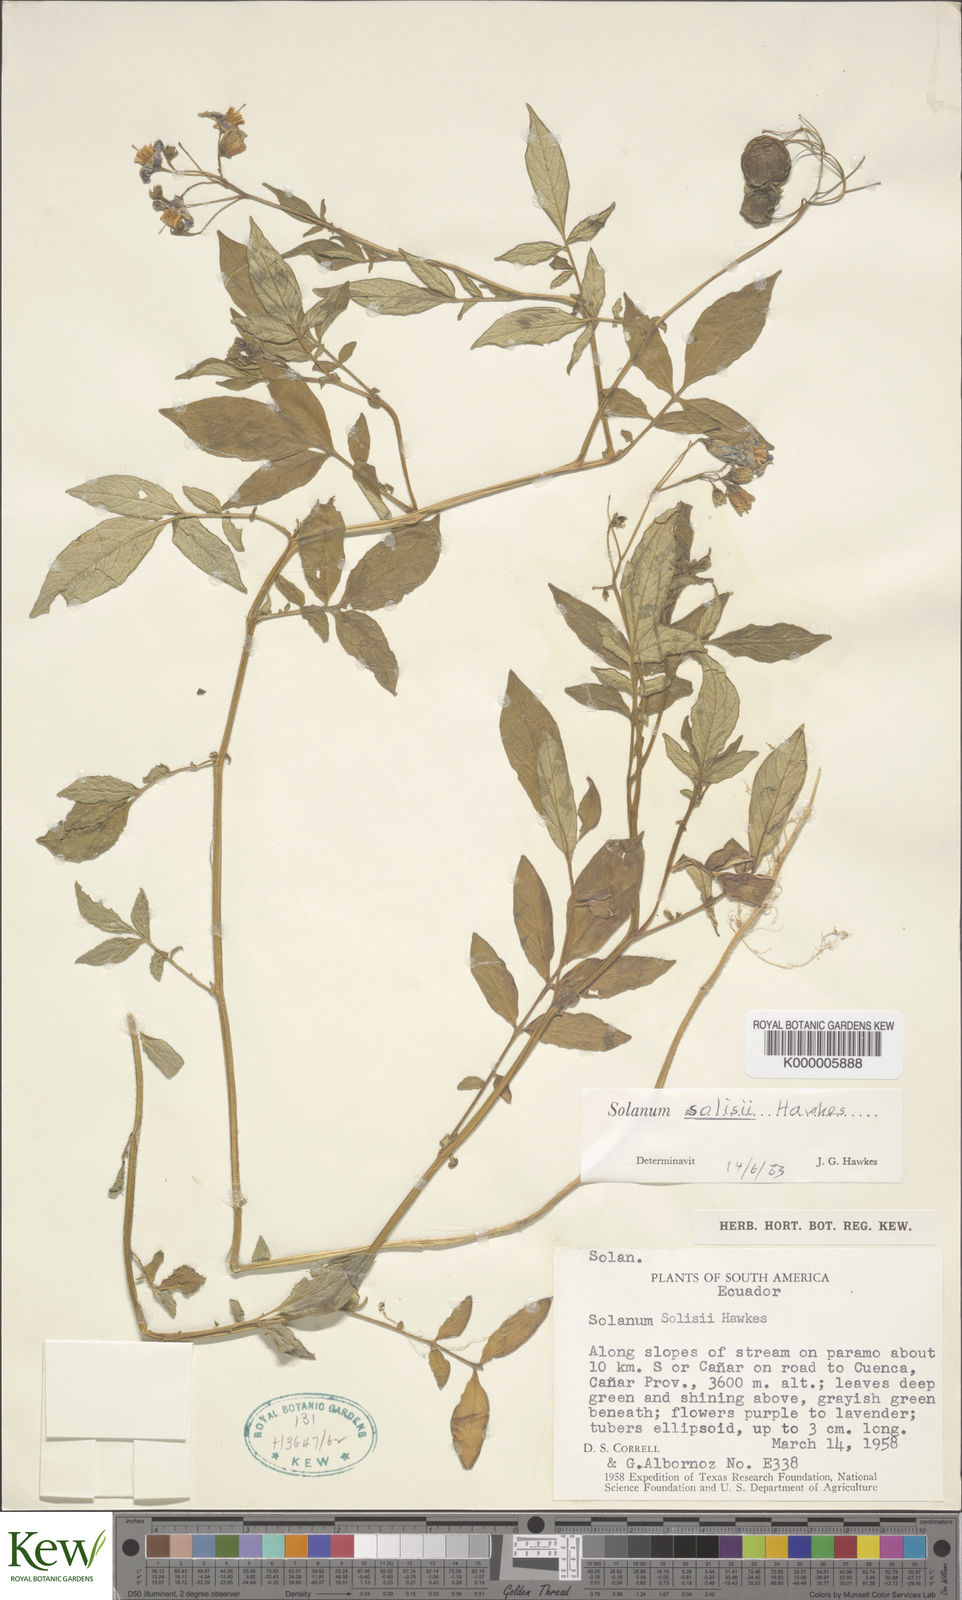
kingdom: Plantae
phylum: Tracheophyta
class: Magnoliopsida
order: Solanales
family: Solanaceae
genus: Solanum
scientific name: Solanum andreanum
